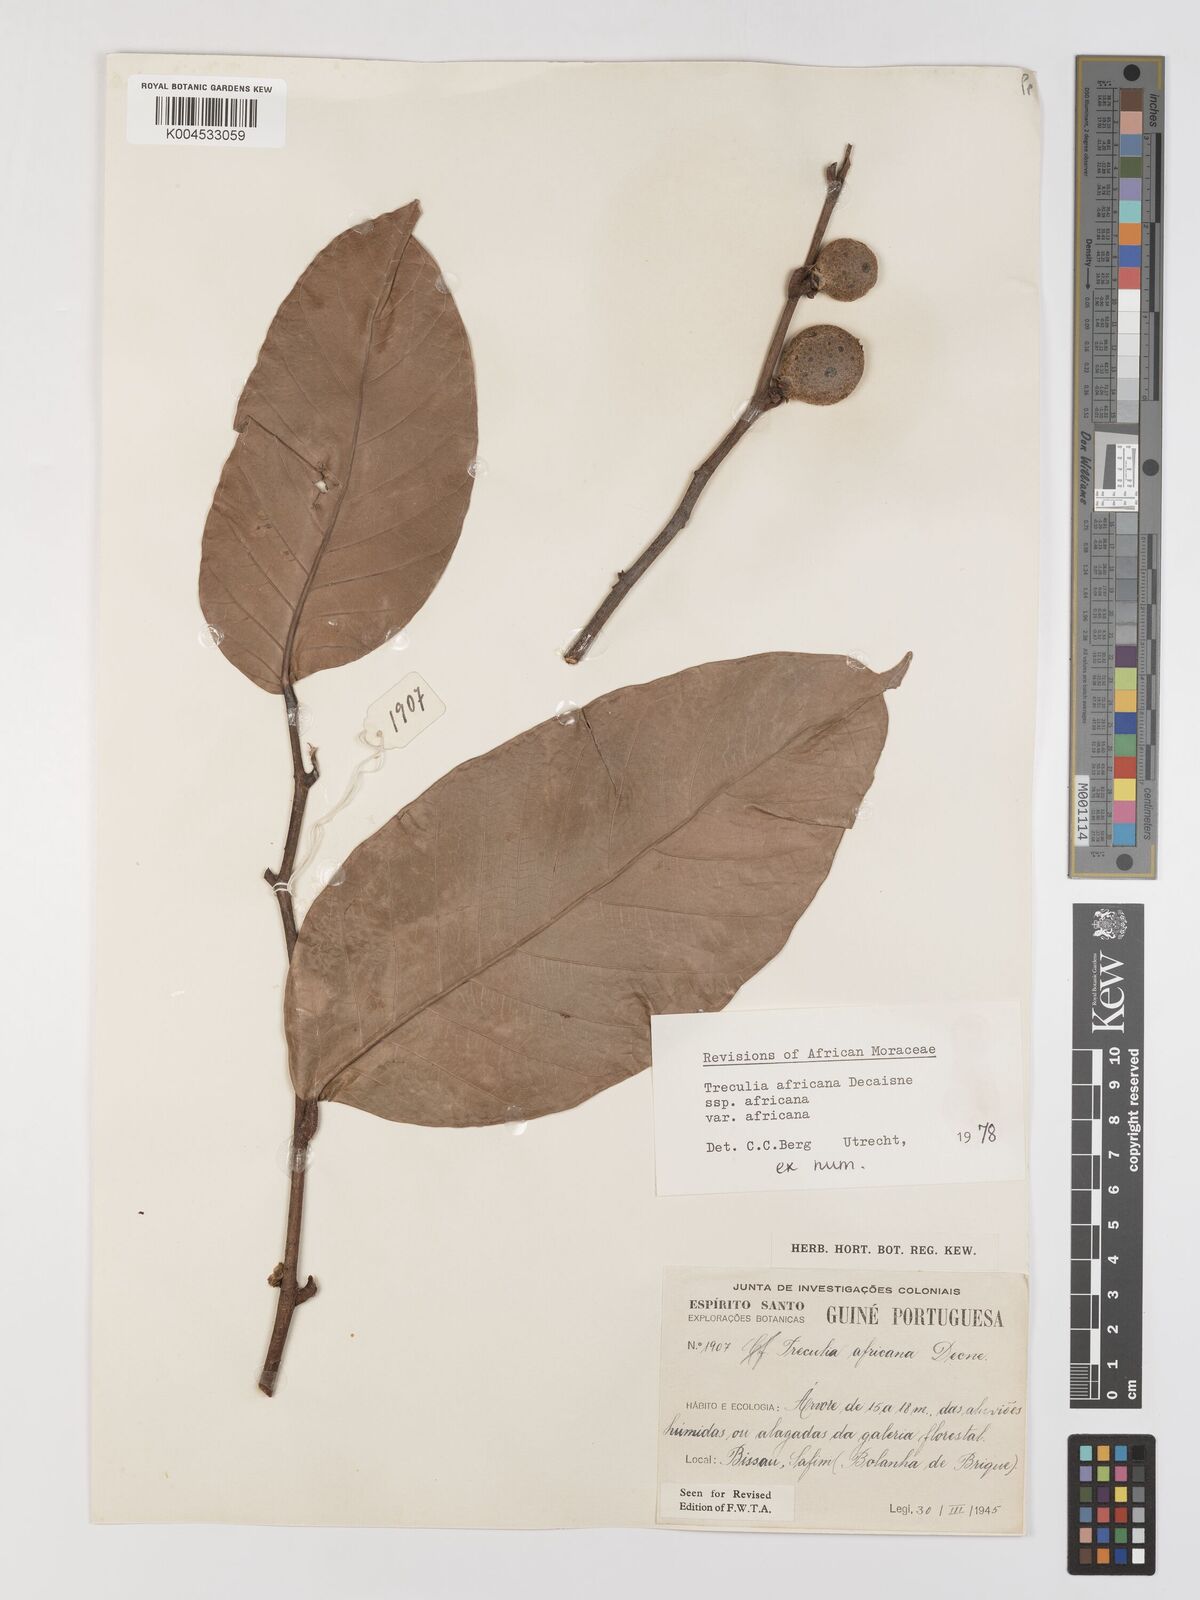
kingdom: Plantae
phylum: Tracheophyta
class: Magnoliopsida
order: Rosales
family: Moraceae
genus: Treculia
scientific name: Treculia africana
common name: African breadfruit
